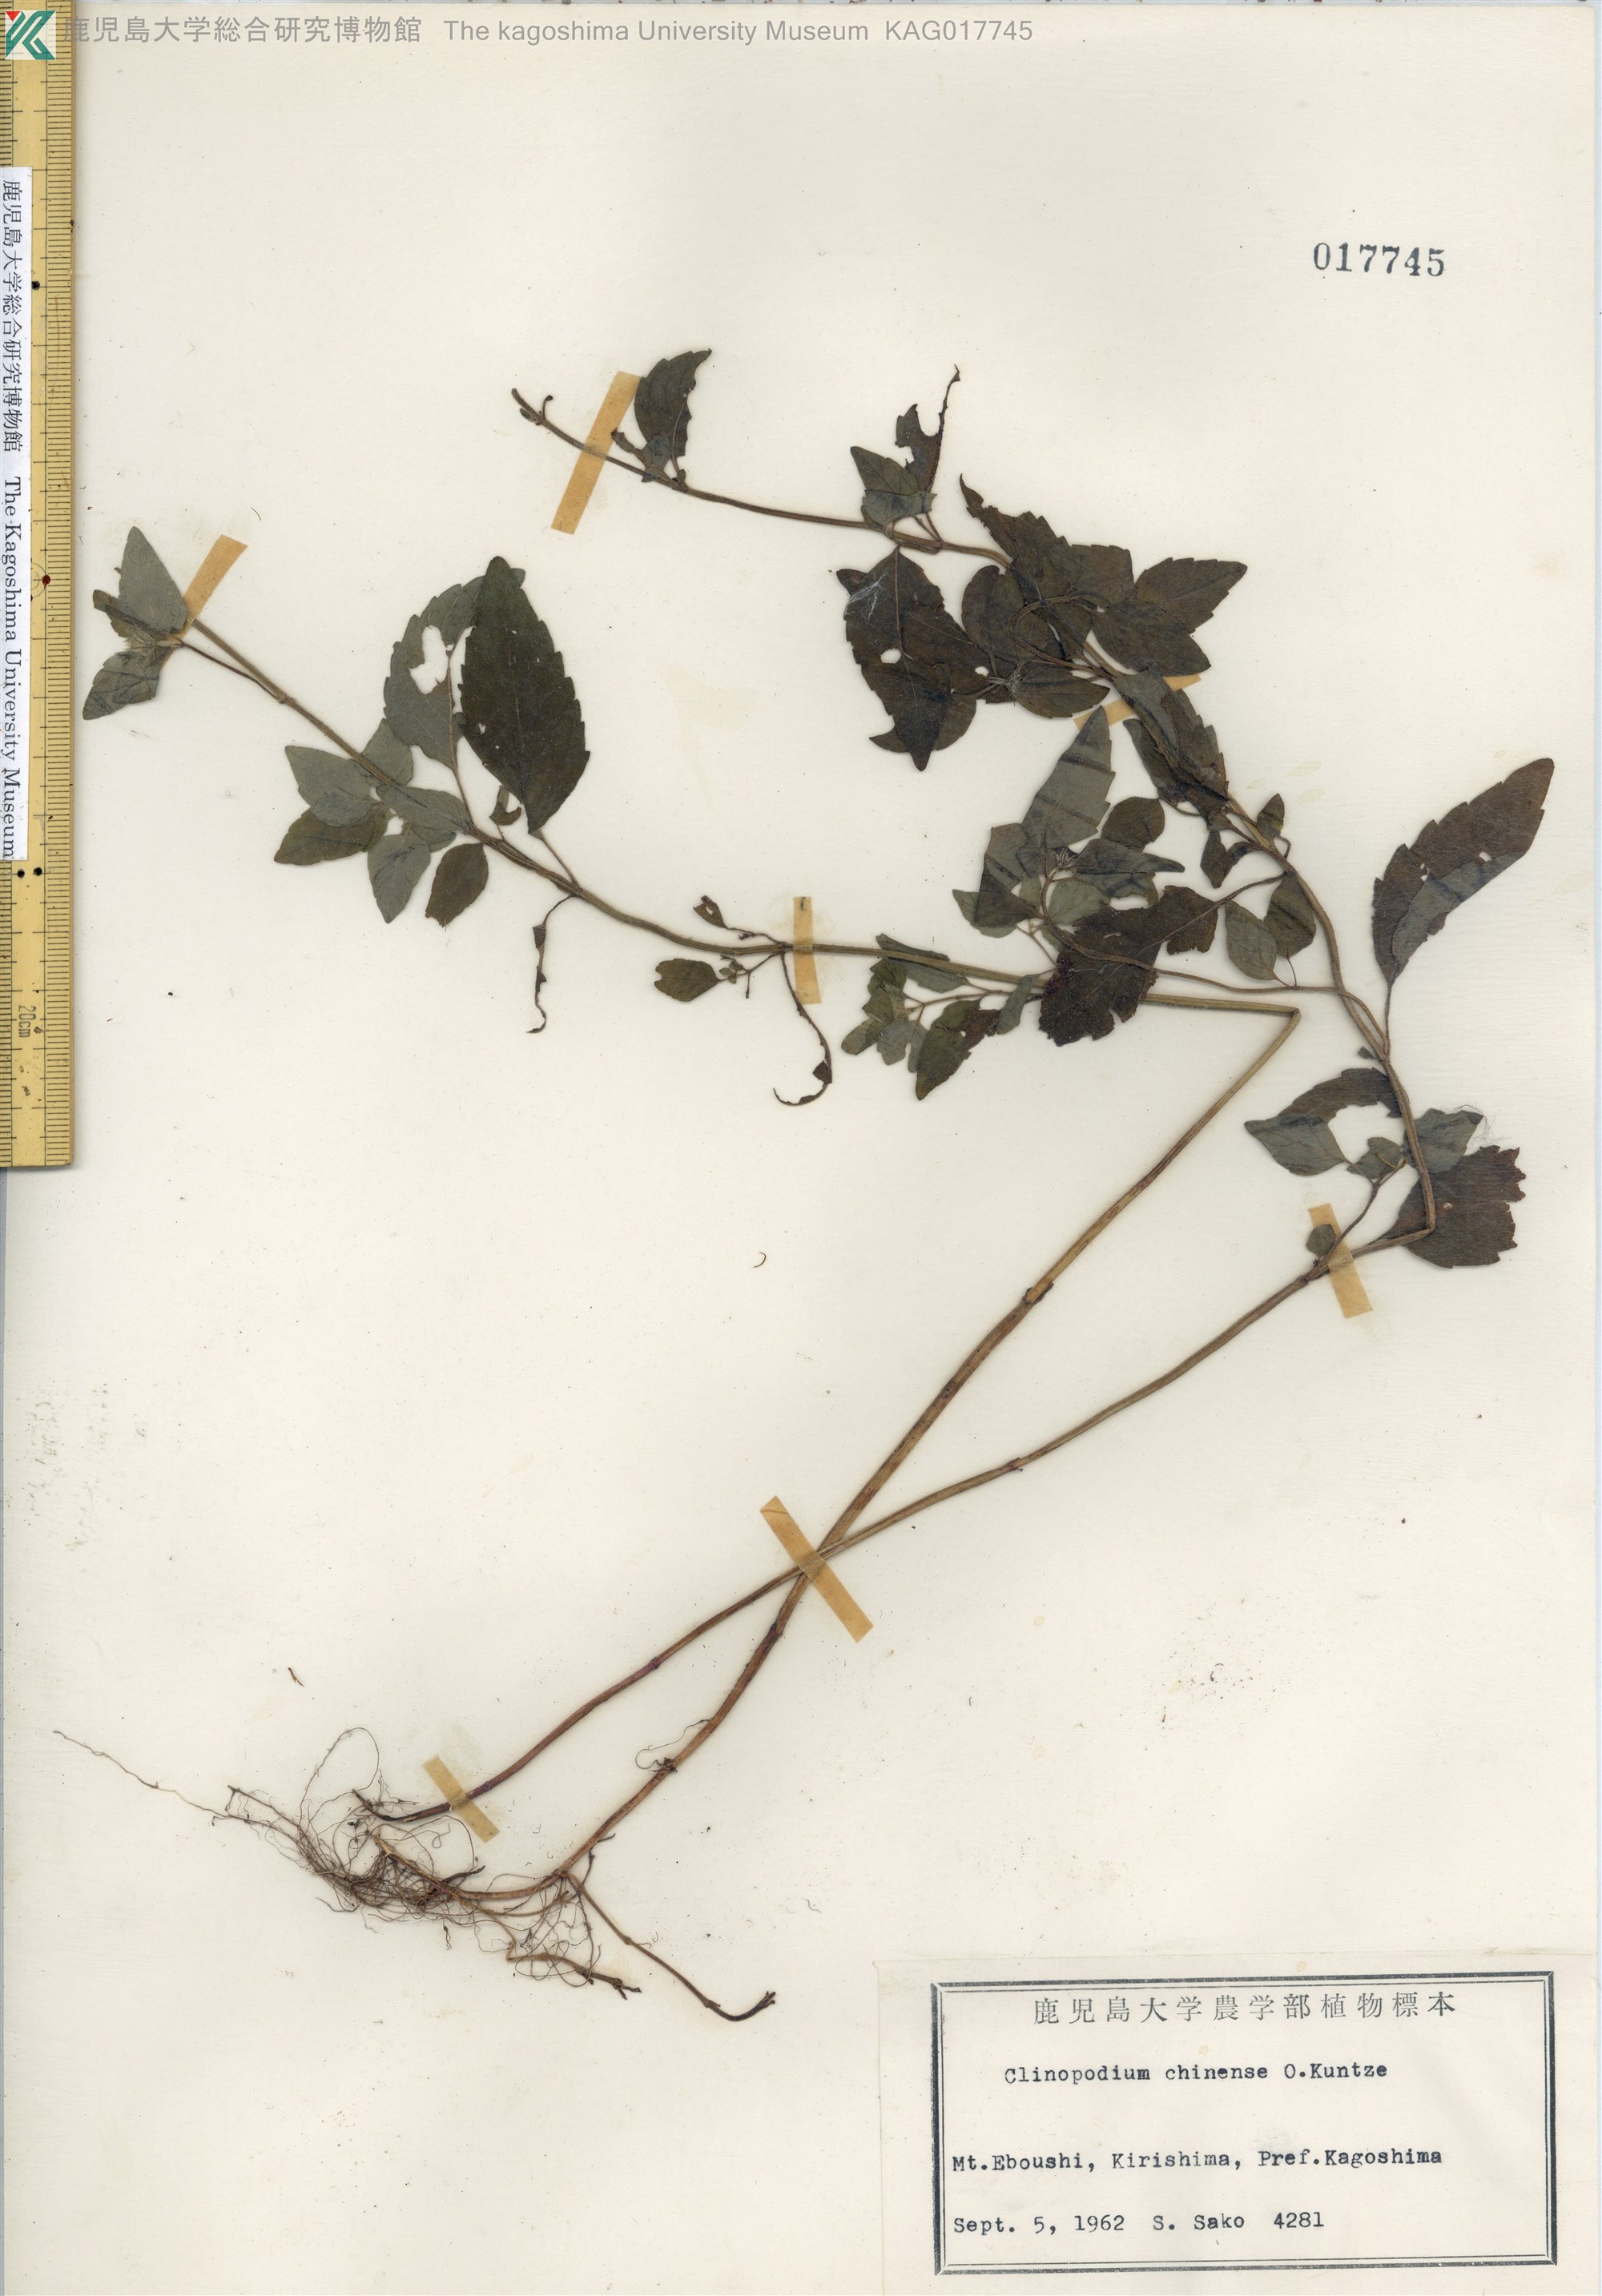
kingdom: Plantae
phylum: Tracheophyta
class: Magnoliopsida
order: Lamiales
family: Lamiaceae
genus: Clinopodium
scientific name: Clinopodium chinense
